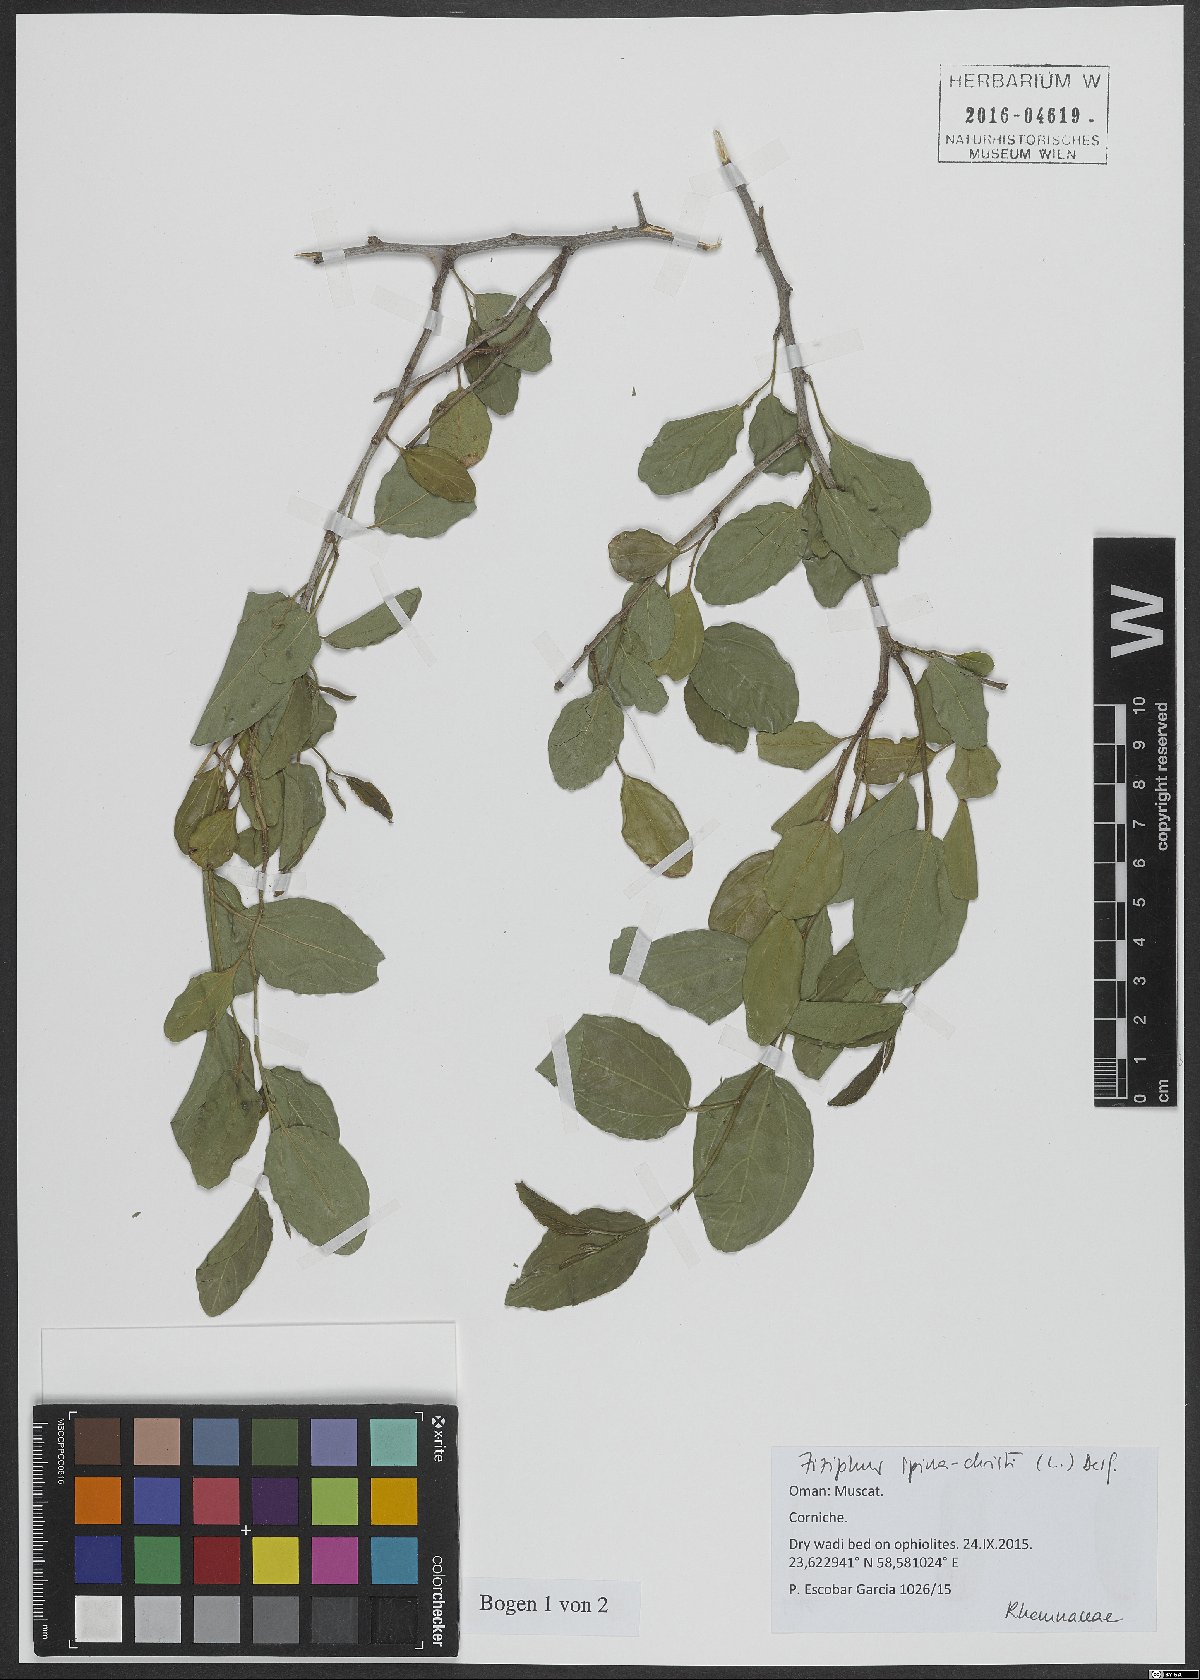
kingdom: Plantae
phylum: Tracheophyta
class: Magnoliopsida
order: Rosales
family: Rhamnaceae
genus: Ziziphus
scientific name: Ziziphus spina-christi
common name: Syrian christ-thorn
